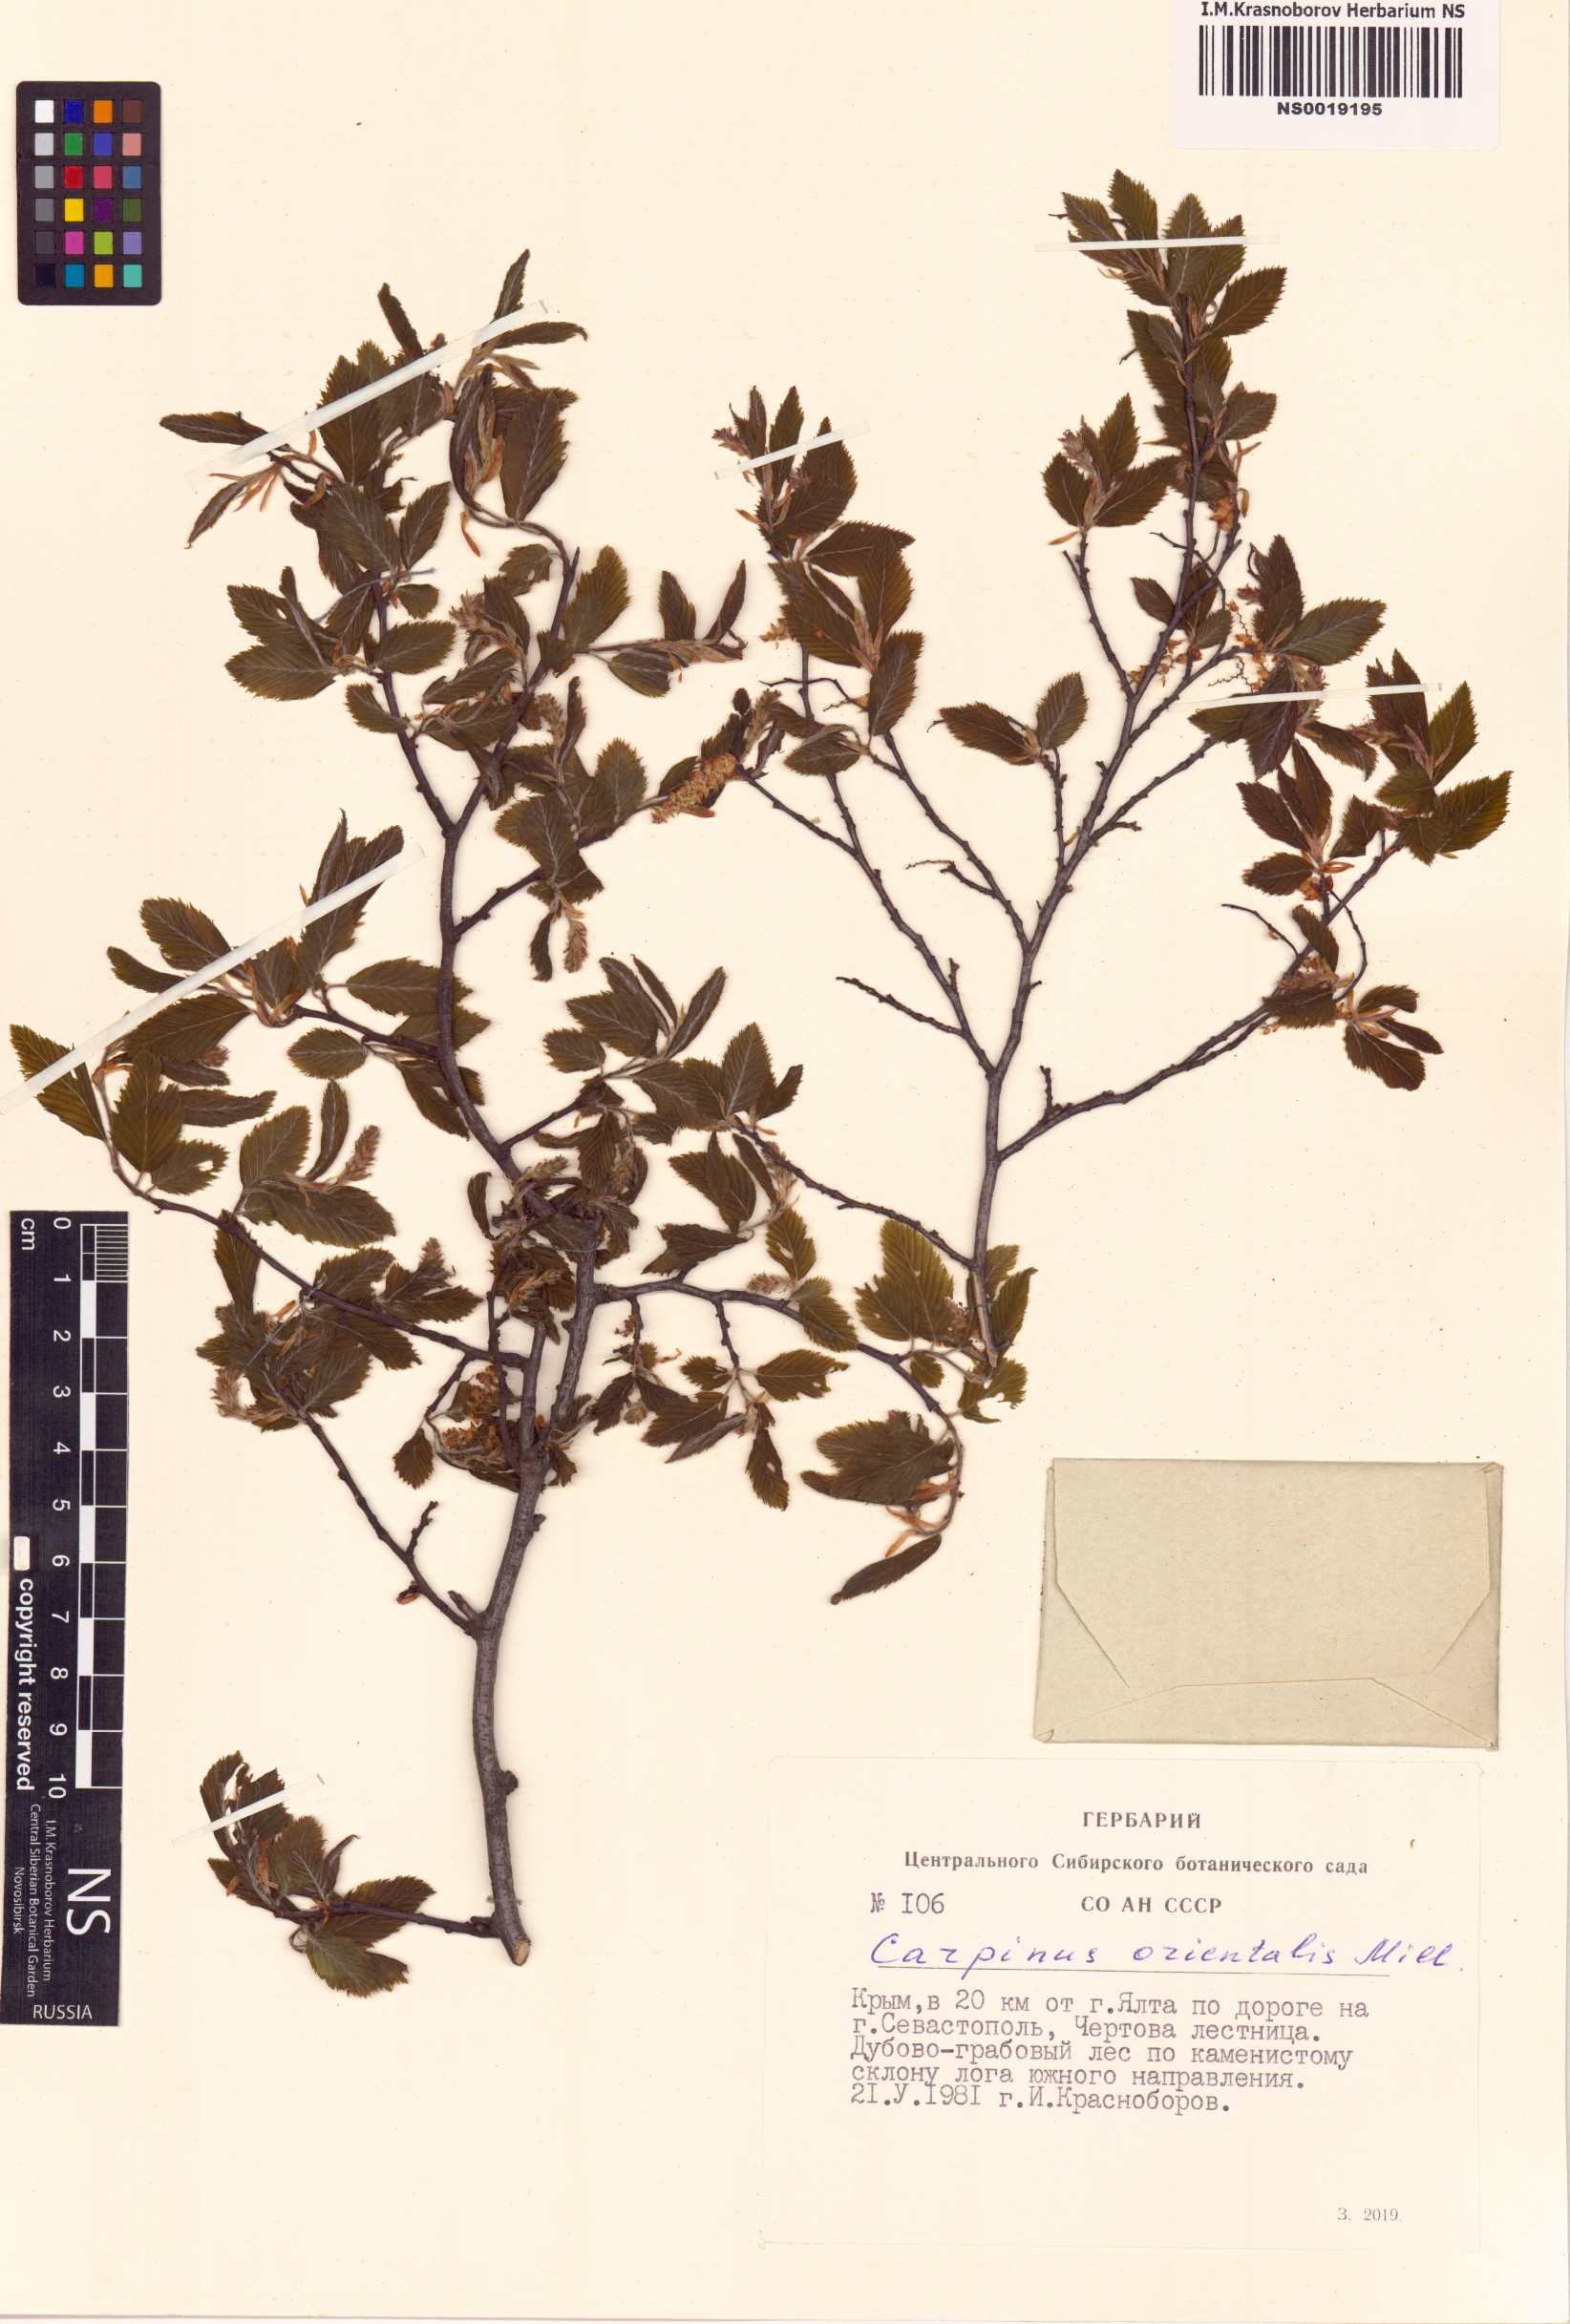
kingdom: Plantae
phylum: Tracheophyta
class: Magnoliopsida
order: Fagales
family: Betulaceae
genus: Carpinus
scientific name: Carpinus orientalis
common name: Eastern hornbeam
